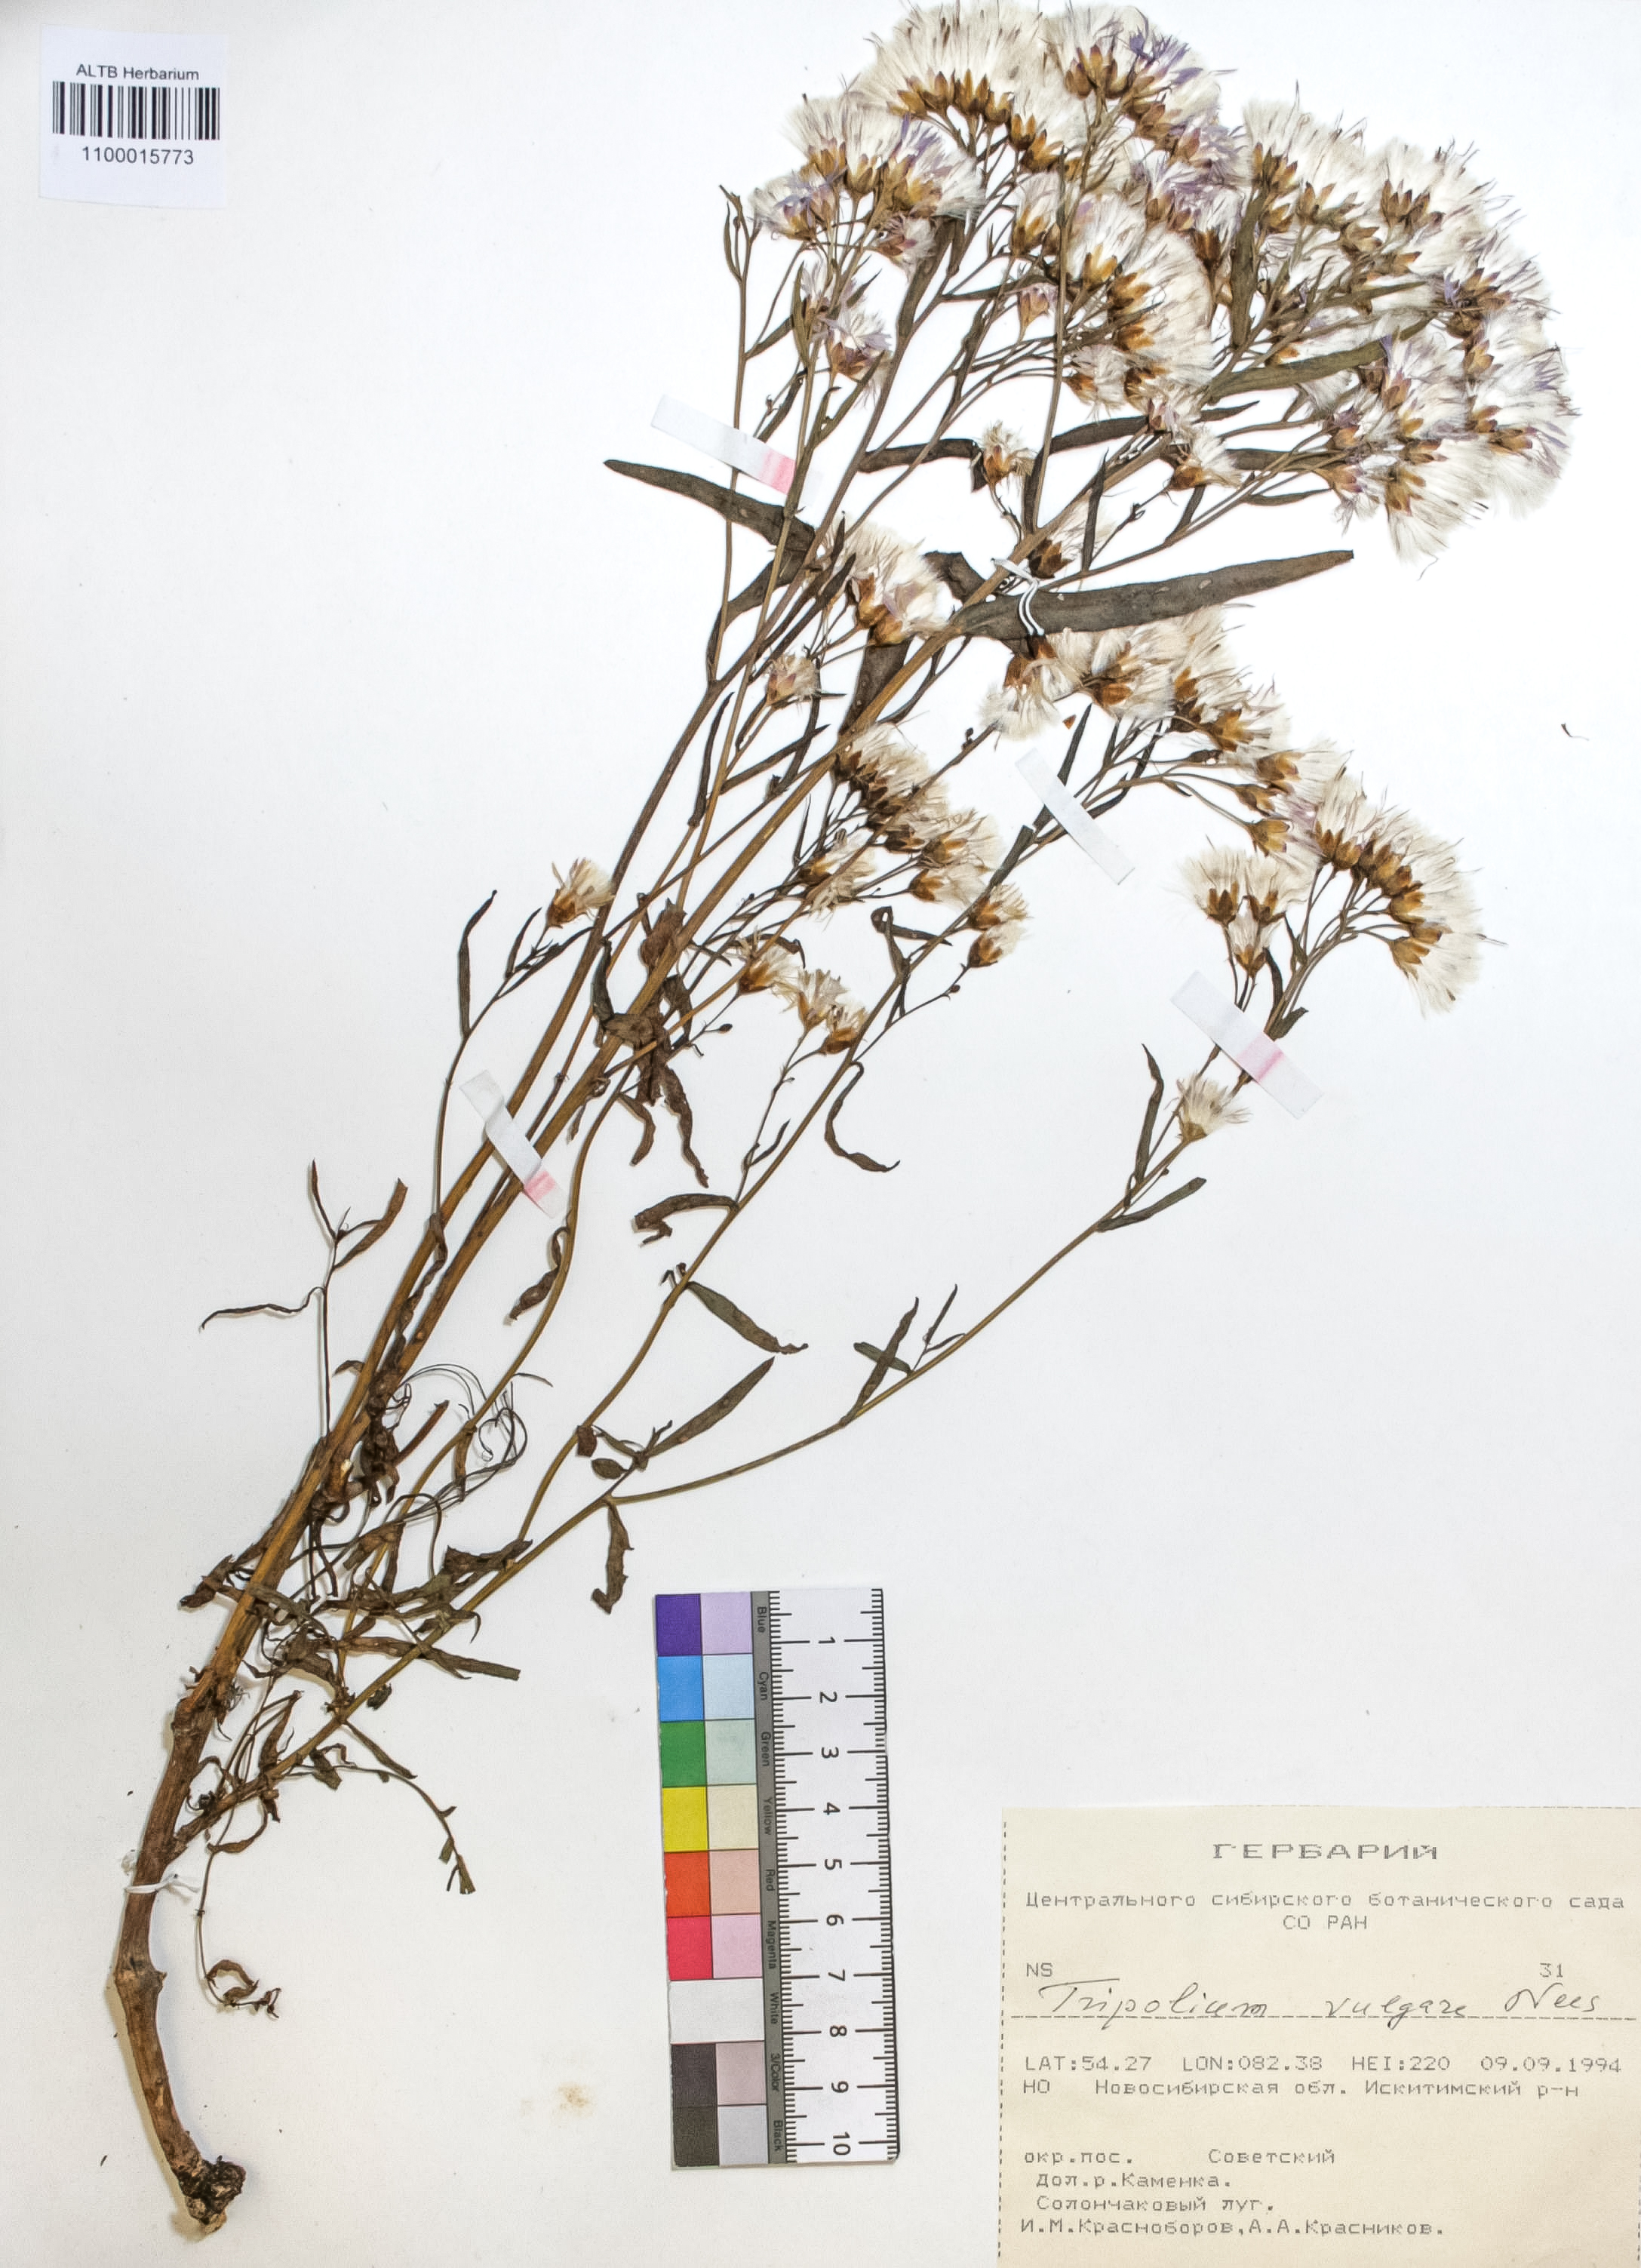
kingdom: Plantae
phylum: Tracheophyta
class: Magnoliopsida
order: Asterales
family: Asteraceae
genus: Tripolium
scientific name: Tripolium pannonicum
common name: Sea aster
